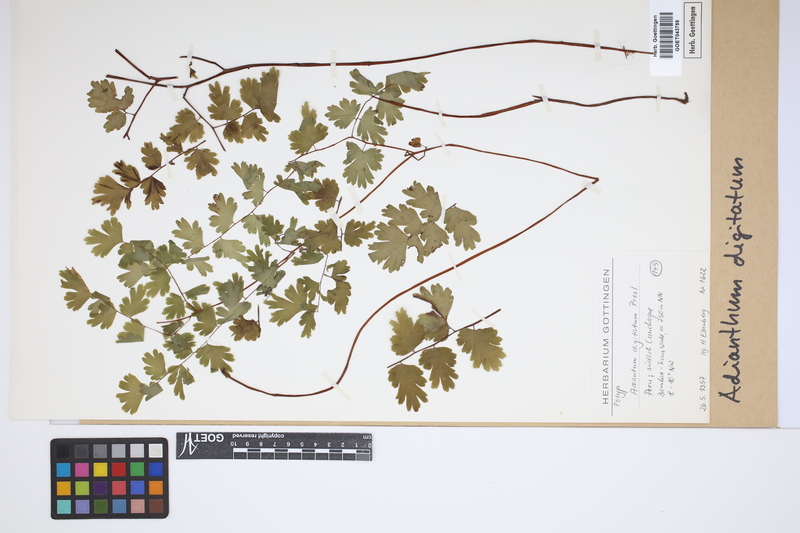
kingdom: Plantae
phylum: Tracheophyta
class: Polypodiopsida
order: Polypodiales
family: Pteridaceae
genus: Adiantum
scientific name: Adiantum digitatum
